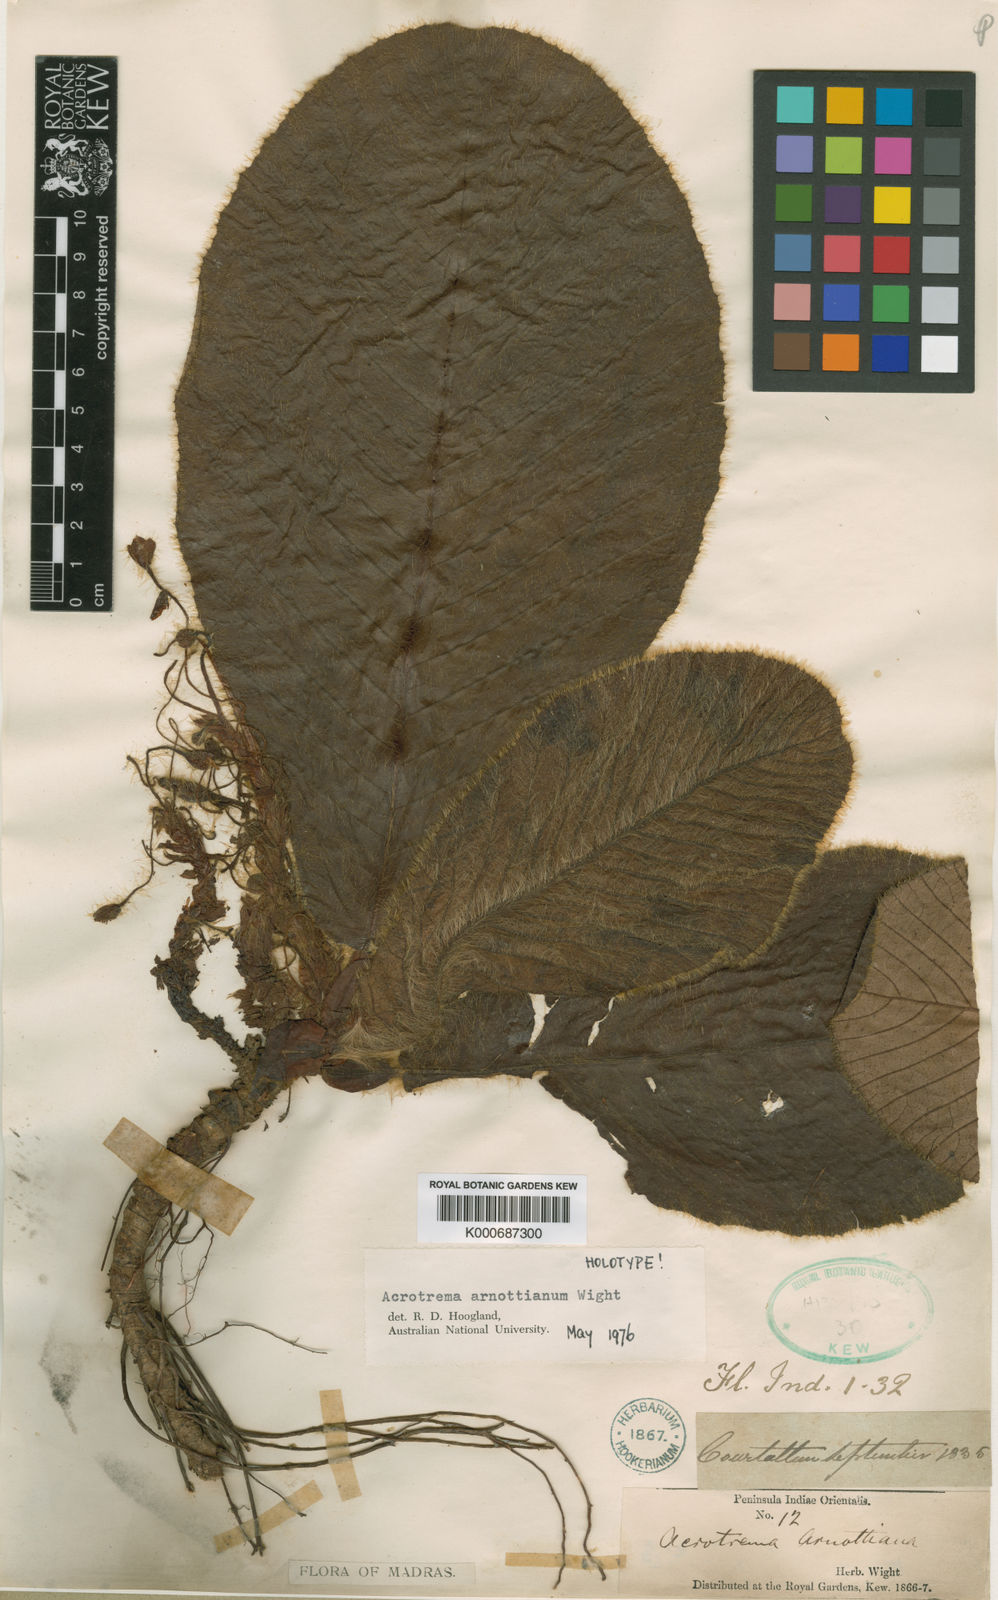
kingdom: Plantae
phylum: Tracheophyta
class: Magnoliopsida
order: Dilleniales
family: Dilleniaceae
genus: Acrotrema
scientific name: Acrotrema arnottianum
